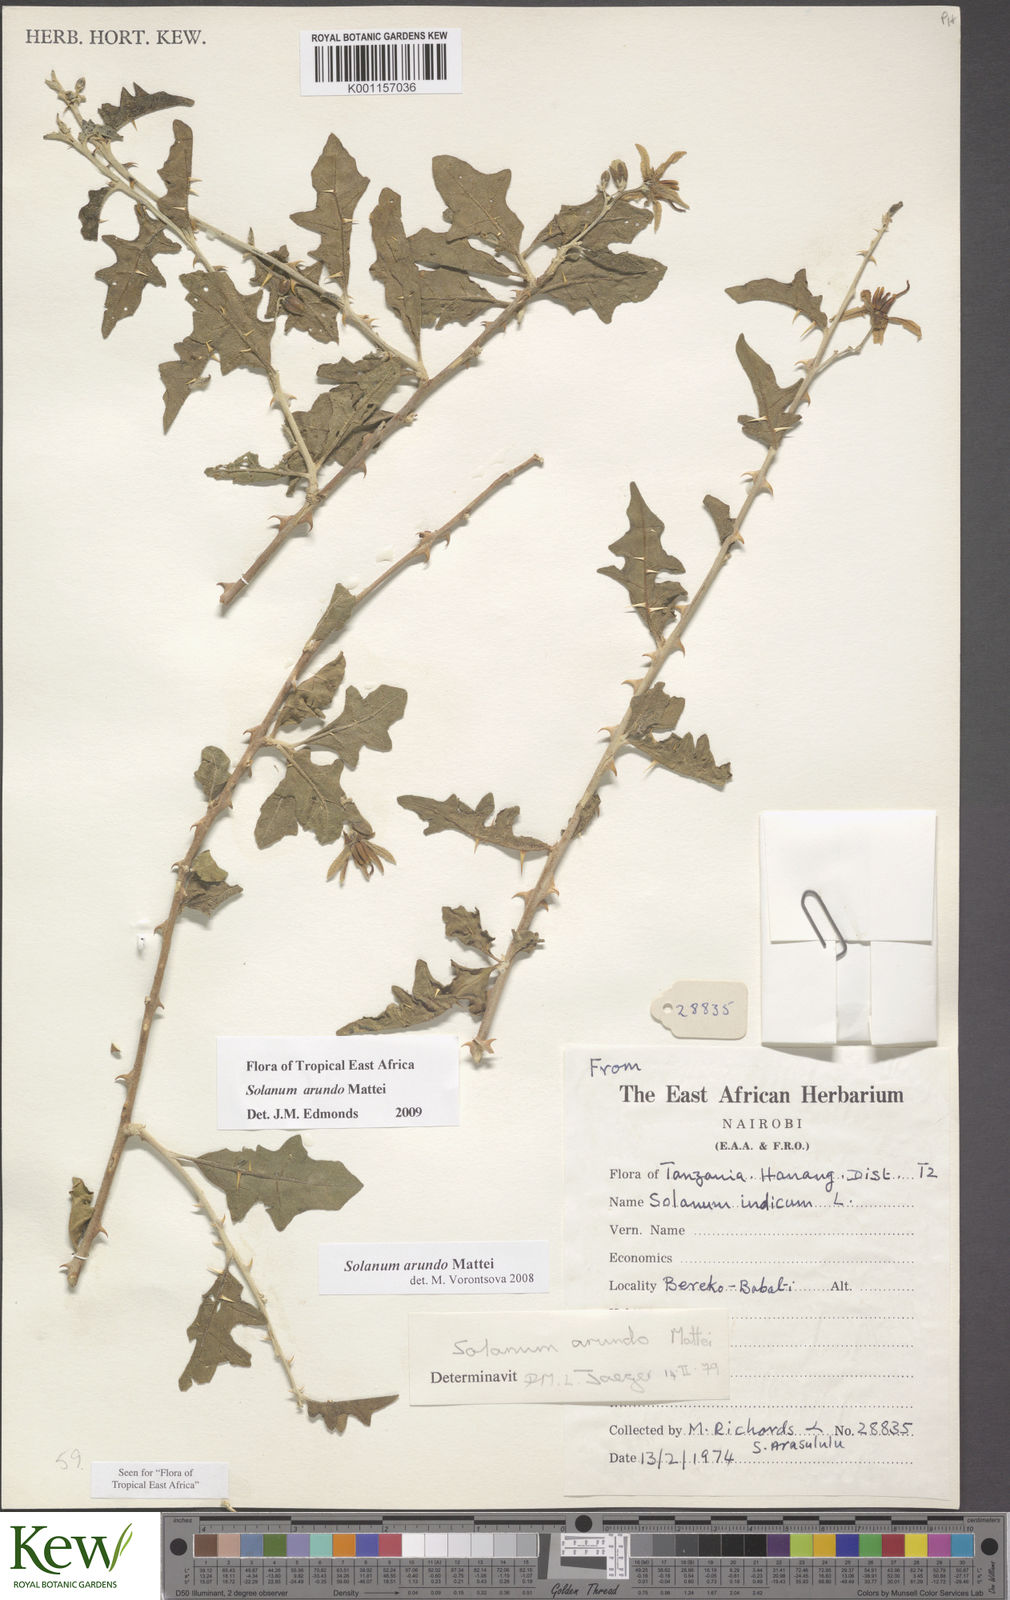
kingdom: Plantae
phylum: Tracheophyta
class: Magnoliopsida
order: Solanales
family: Solanaceae
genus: Solanum
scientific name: Solanum arundo
